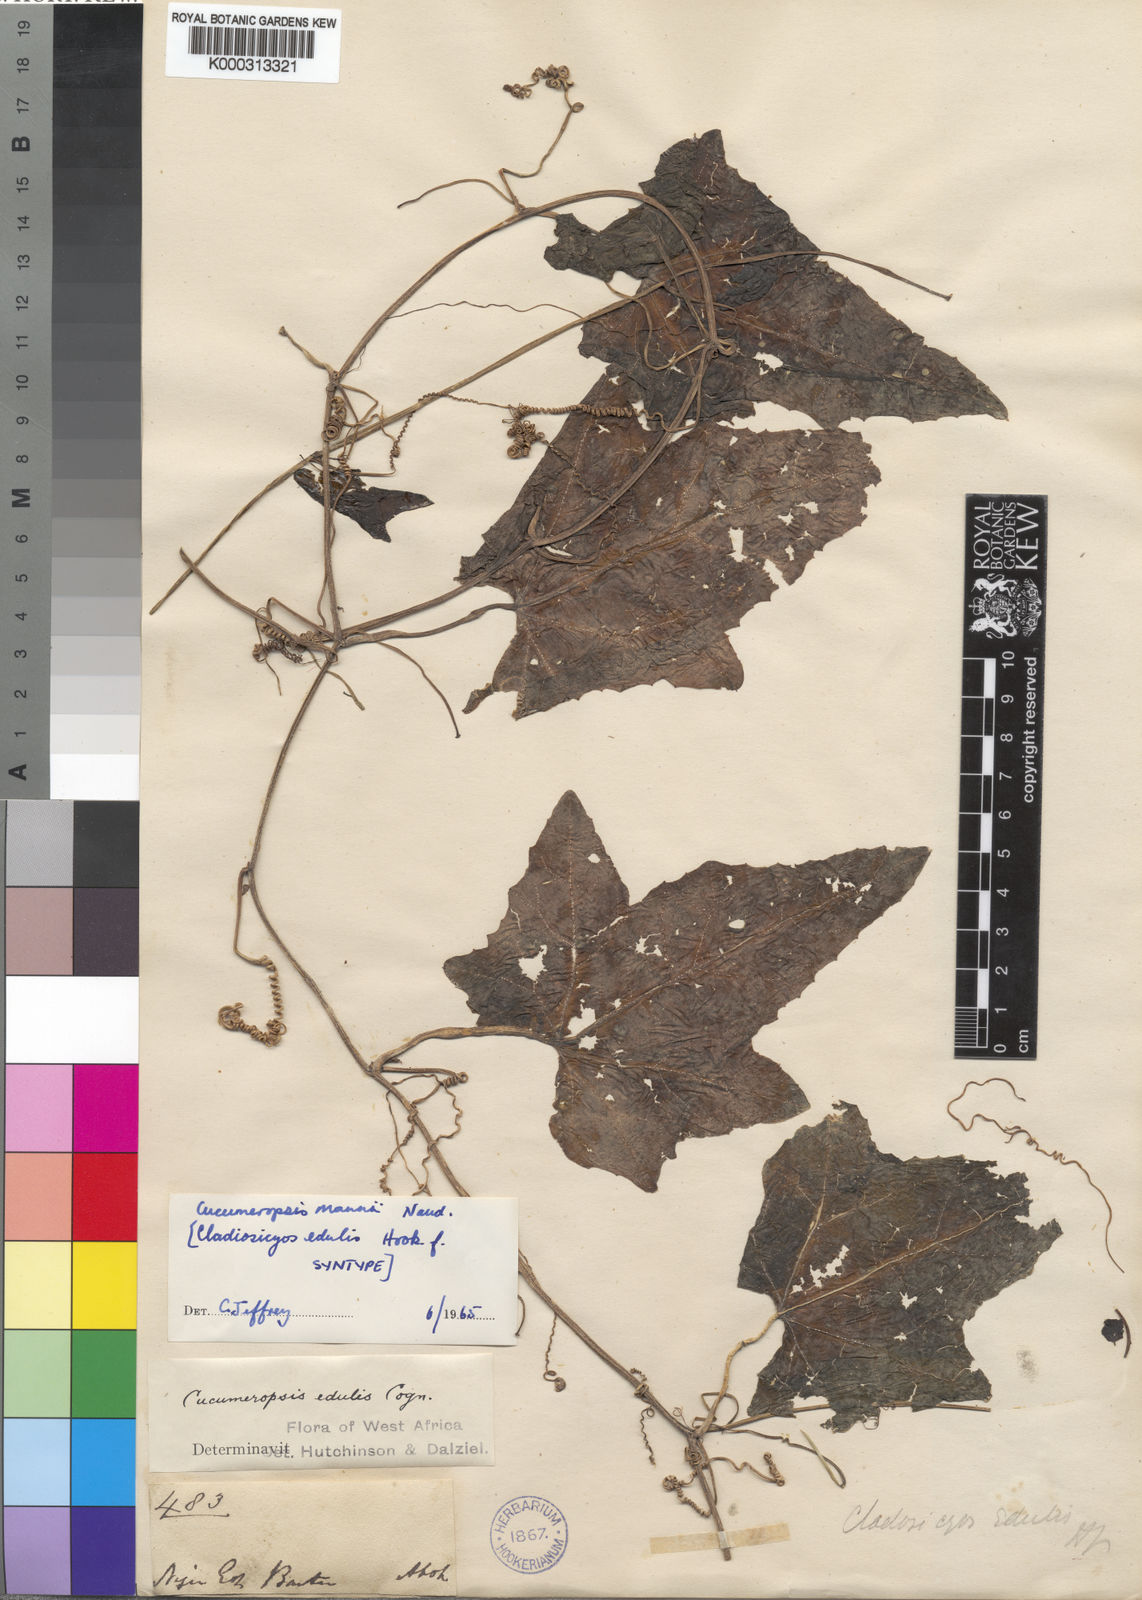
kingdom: Plantae
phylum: Tracheophyta
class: Magnoliopsida
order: Cucurbitales
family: Cucurbitaceae
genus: Melothria
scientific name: Melothria sphaerocarpa
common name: Egusi-itoo
